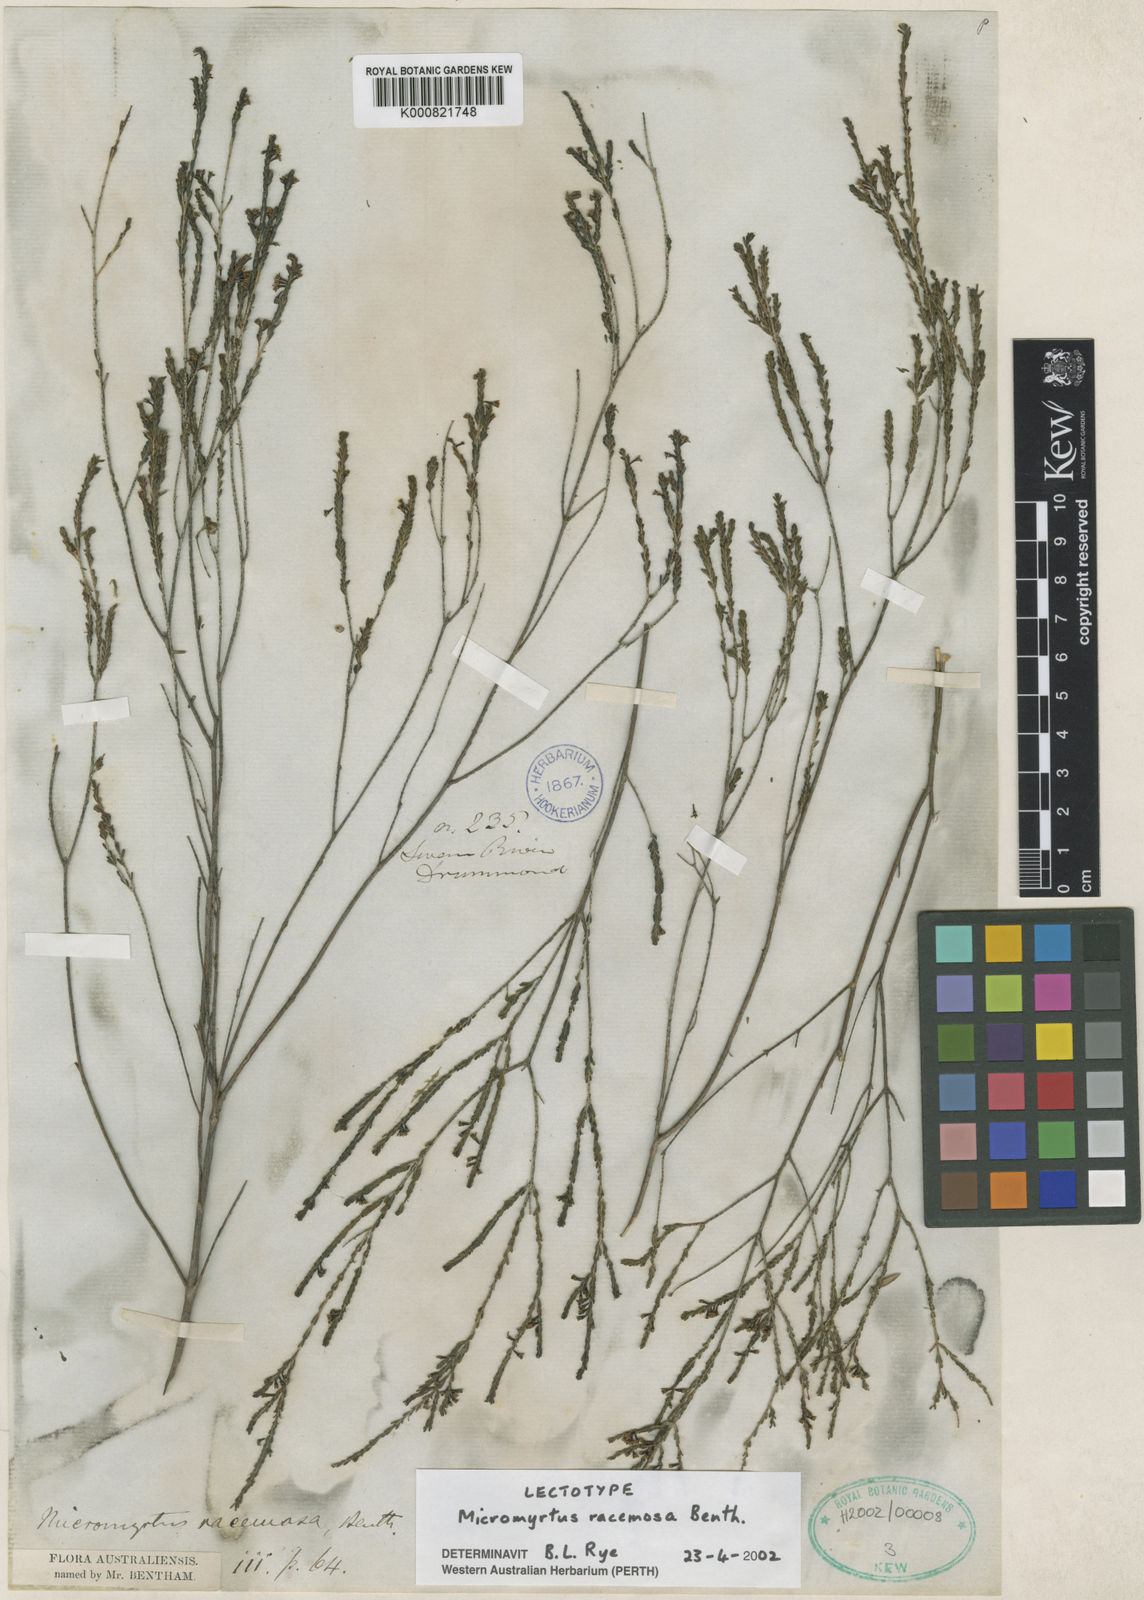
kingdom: Plantae
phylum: Tracheophyta
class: Magnoliopsida
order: Myrtales
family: Myrtaceae
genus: Micromyrtus
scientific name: Micromyrtus racemosa
